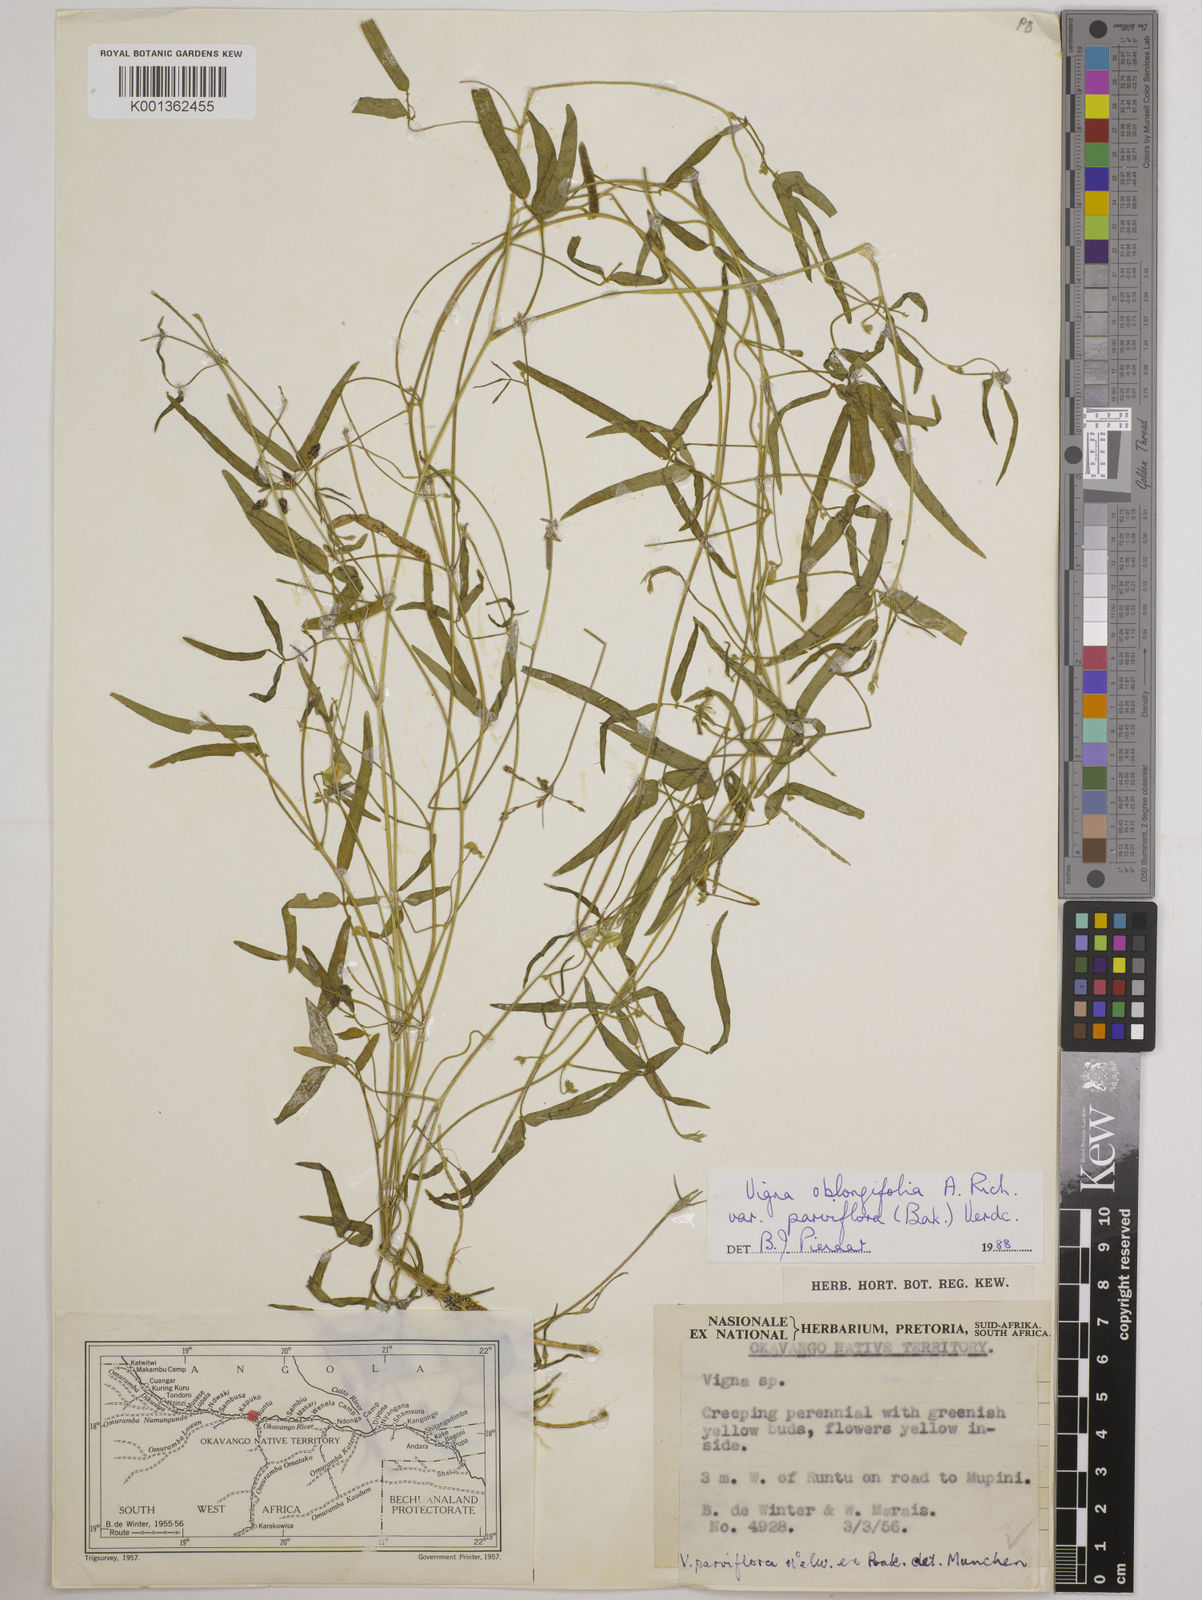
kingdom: Plantae
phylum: Tracheophyta
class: Magnoliopsida
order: Fabales
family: Fabaceae
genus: Vigna
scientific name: Vigna
